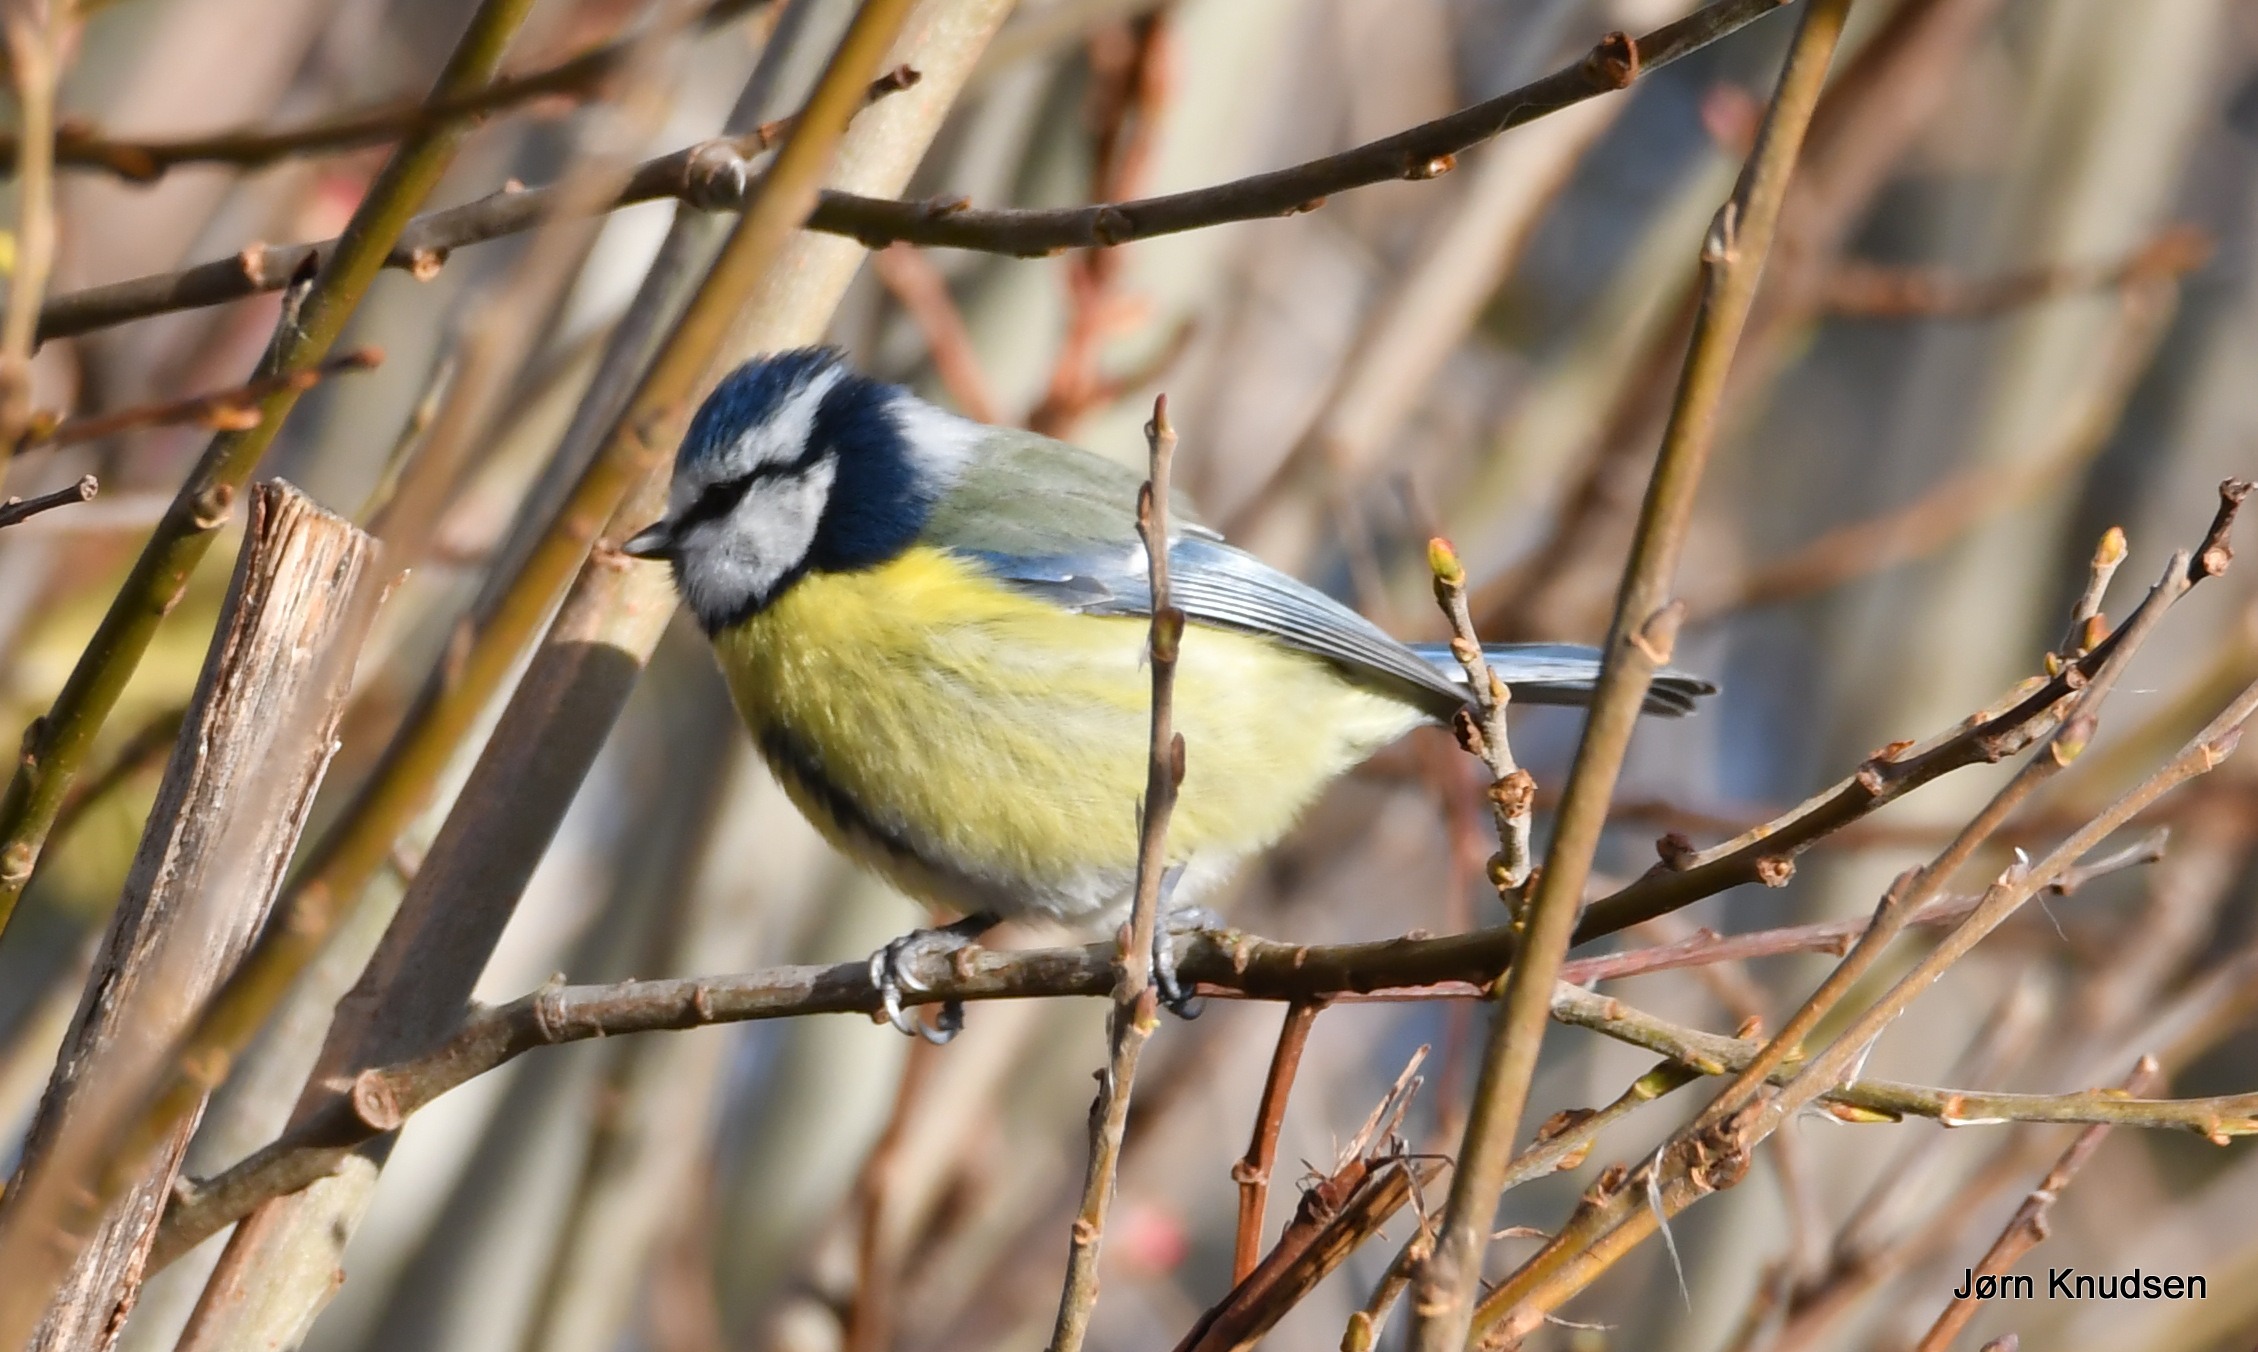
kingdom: Animalia
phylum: Chordata
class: Aves
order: Passeriformes
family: Paridae
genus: Cyanistes
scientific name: Cyanistes caeruleus
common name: Blåmejse
